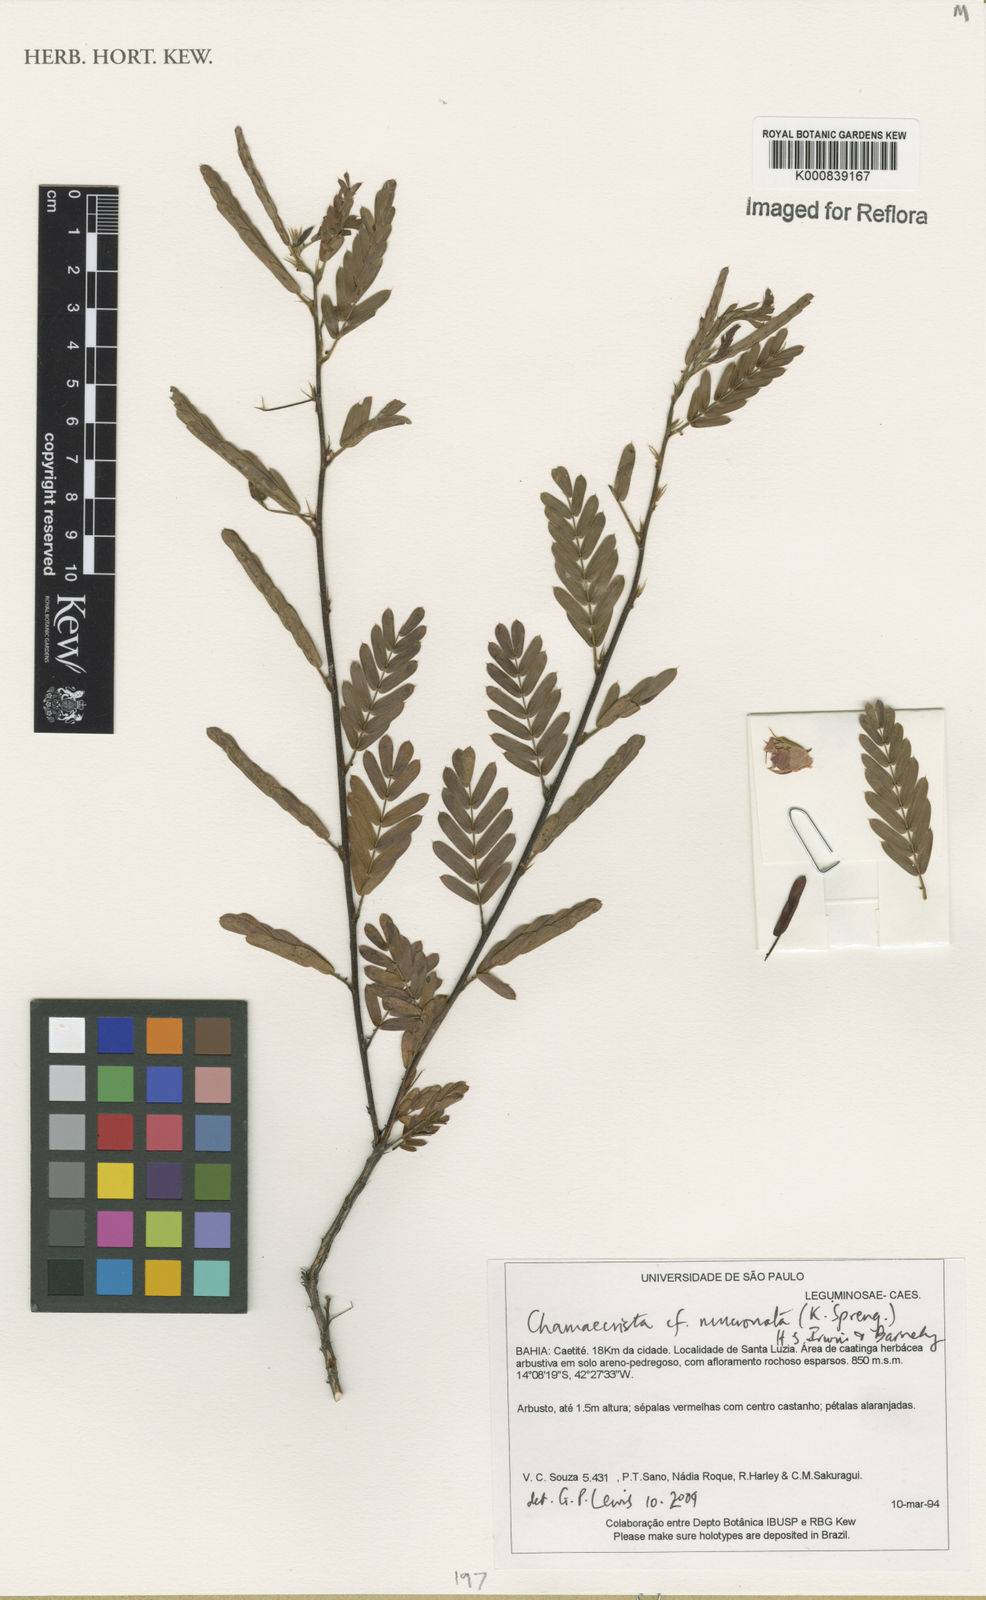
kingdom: Plantae
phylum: Tracheophyta
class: Magnoliopsida
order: Fabales
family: Fabaceae
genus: Chamaecrista
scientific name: Chamaecrista mucronata
